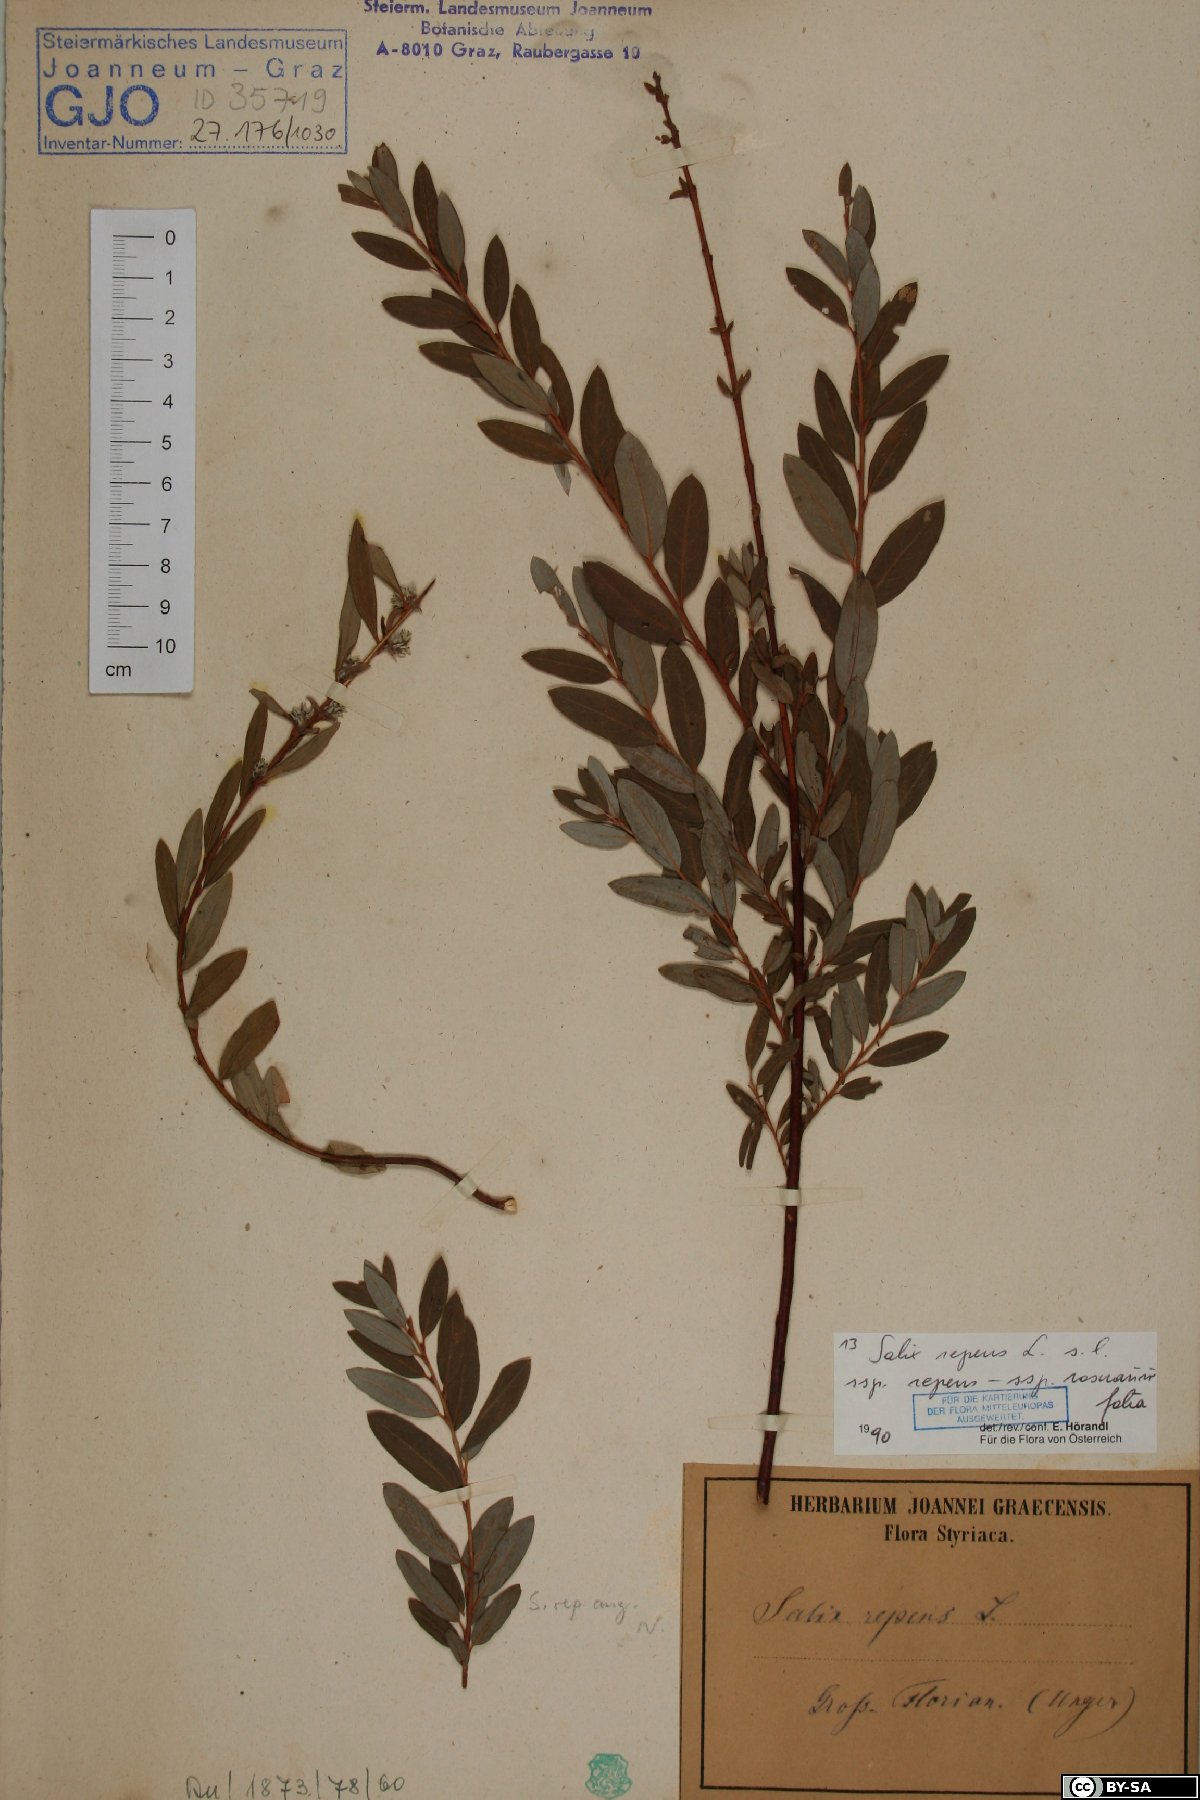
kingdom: Plantae
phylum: Tracheophyta
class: Magnoliopsida
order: Malpighiales
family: Salicaceae
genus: Salix
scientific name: Salix repens
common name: Creeping willow
